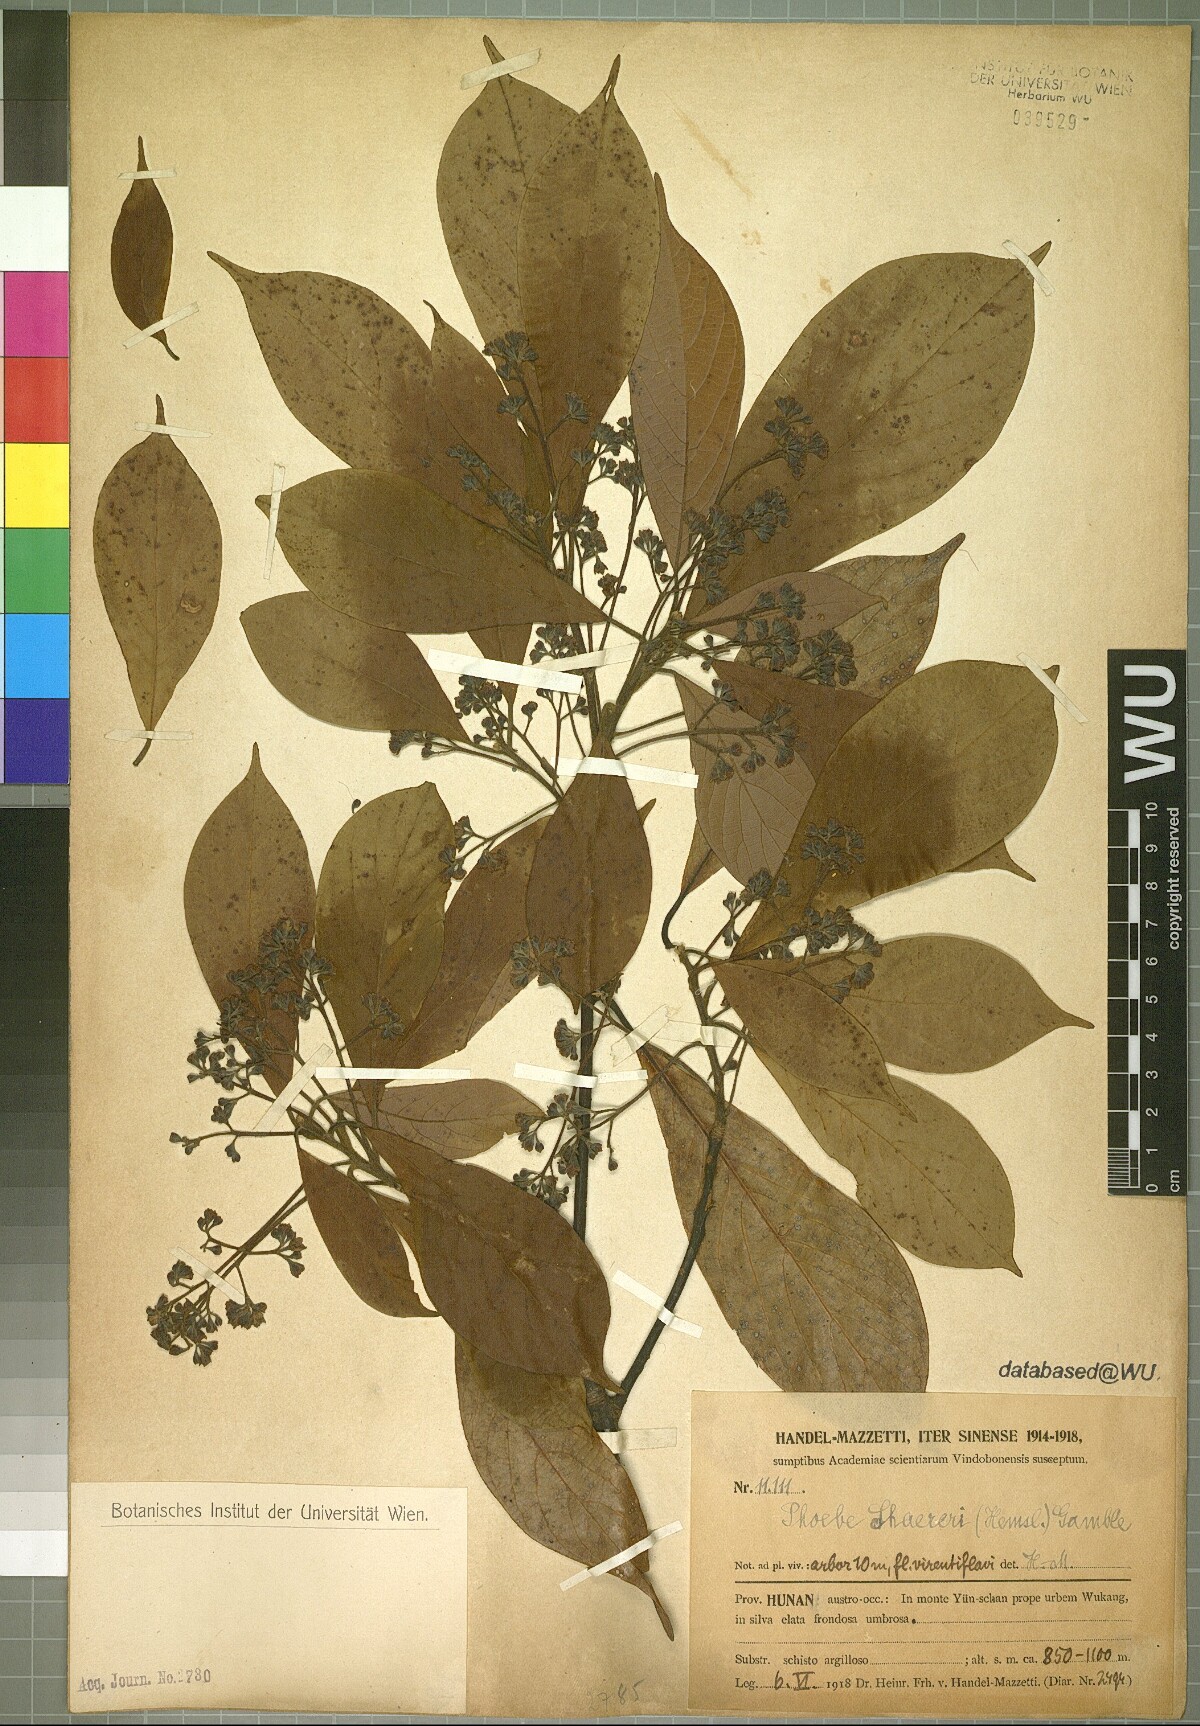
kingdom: Plantae
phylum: Tracheophyta
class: Magnoliopsida
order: Laurales
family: Lauraceae
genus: Phoebe
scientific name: Phoebe sheareri
